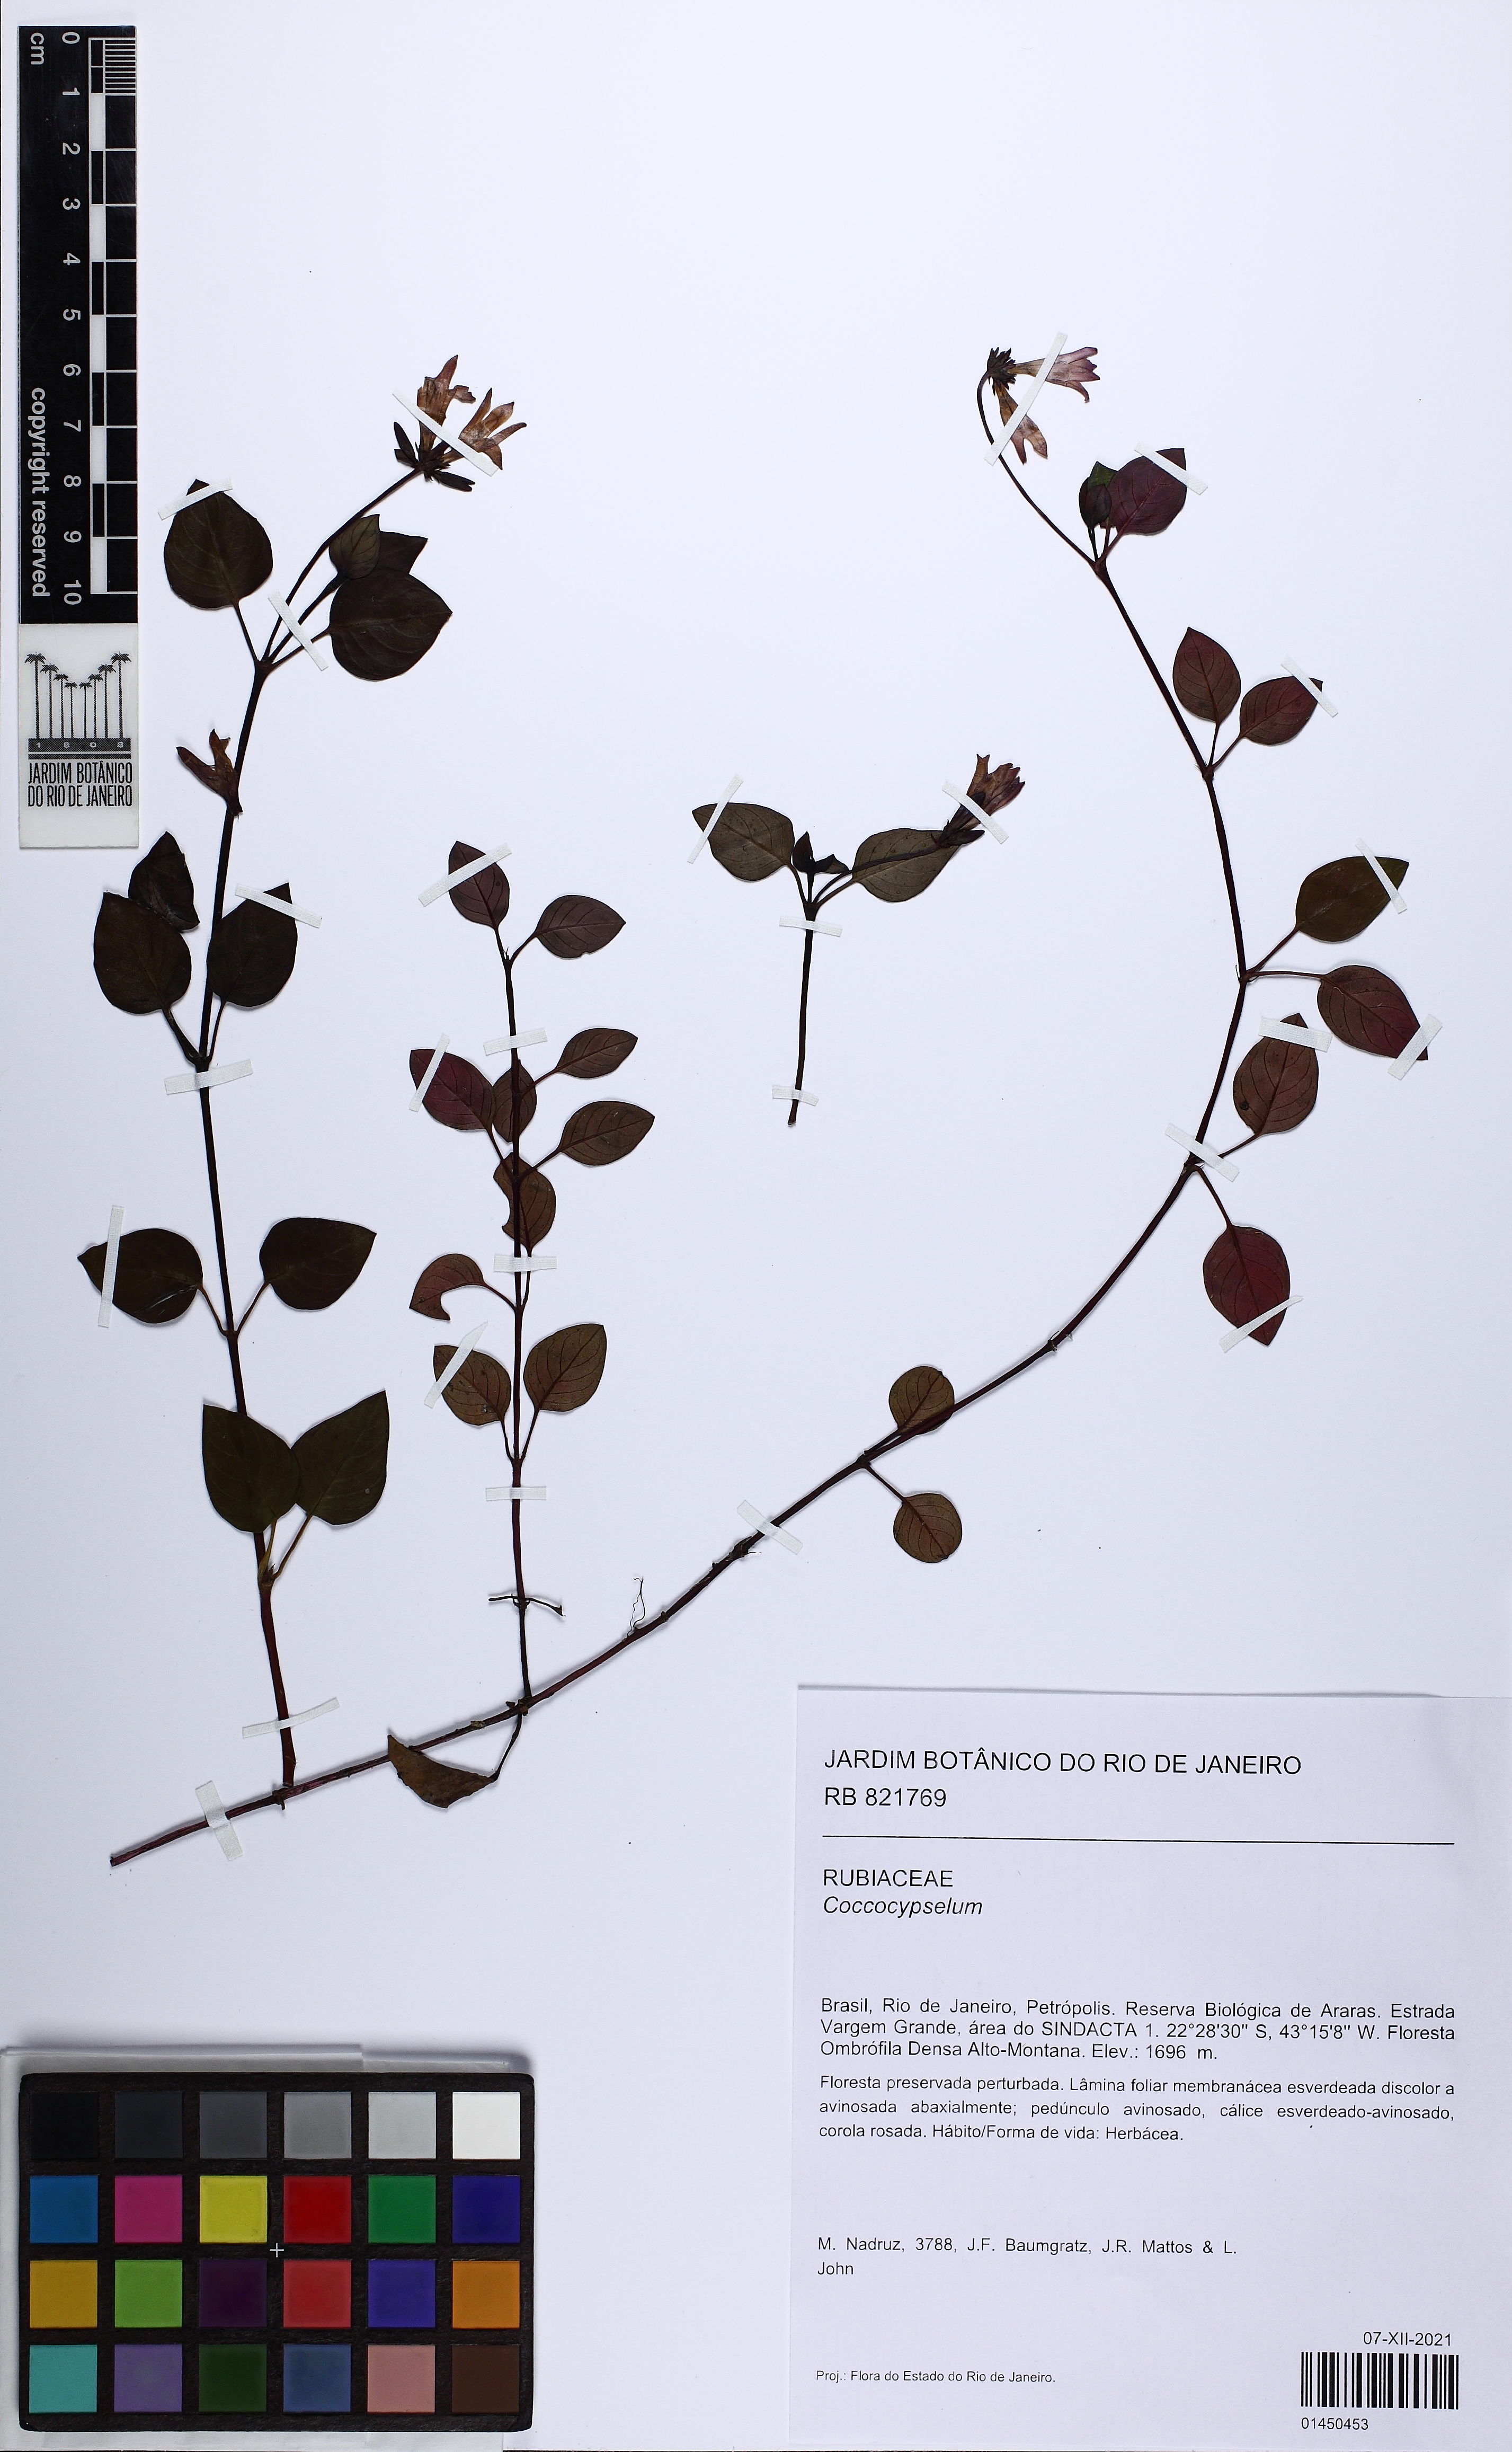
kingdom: Plantae
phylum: Tracheophyta
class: Magnoliopsida
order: Gentianales
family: Rubiaceae
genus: Coccocypselum
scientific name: Coccocypselum
